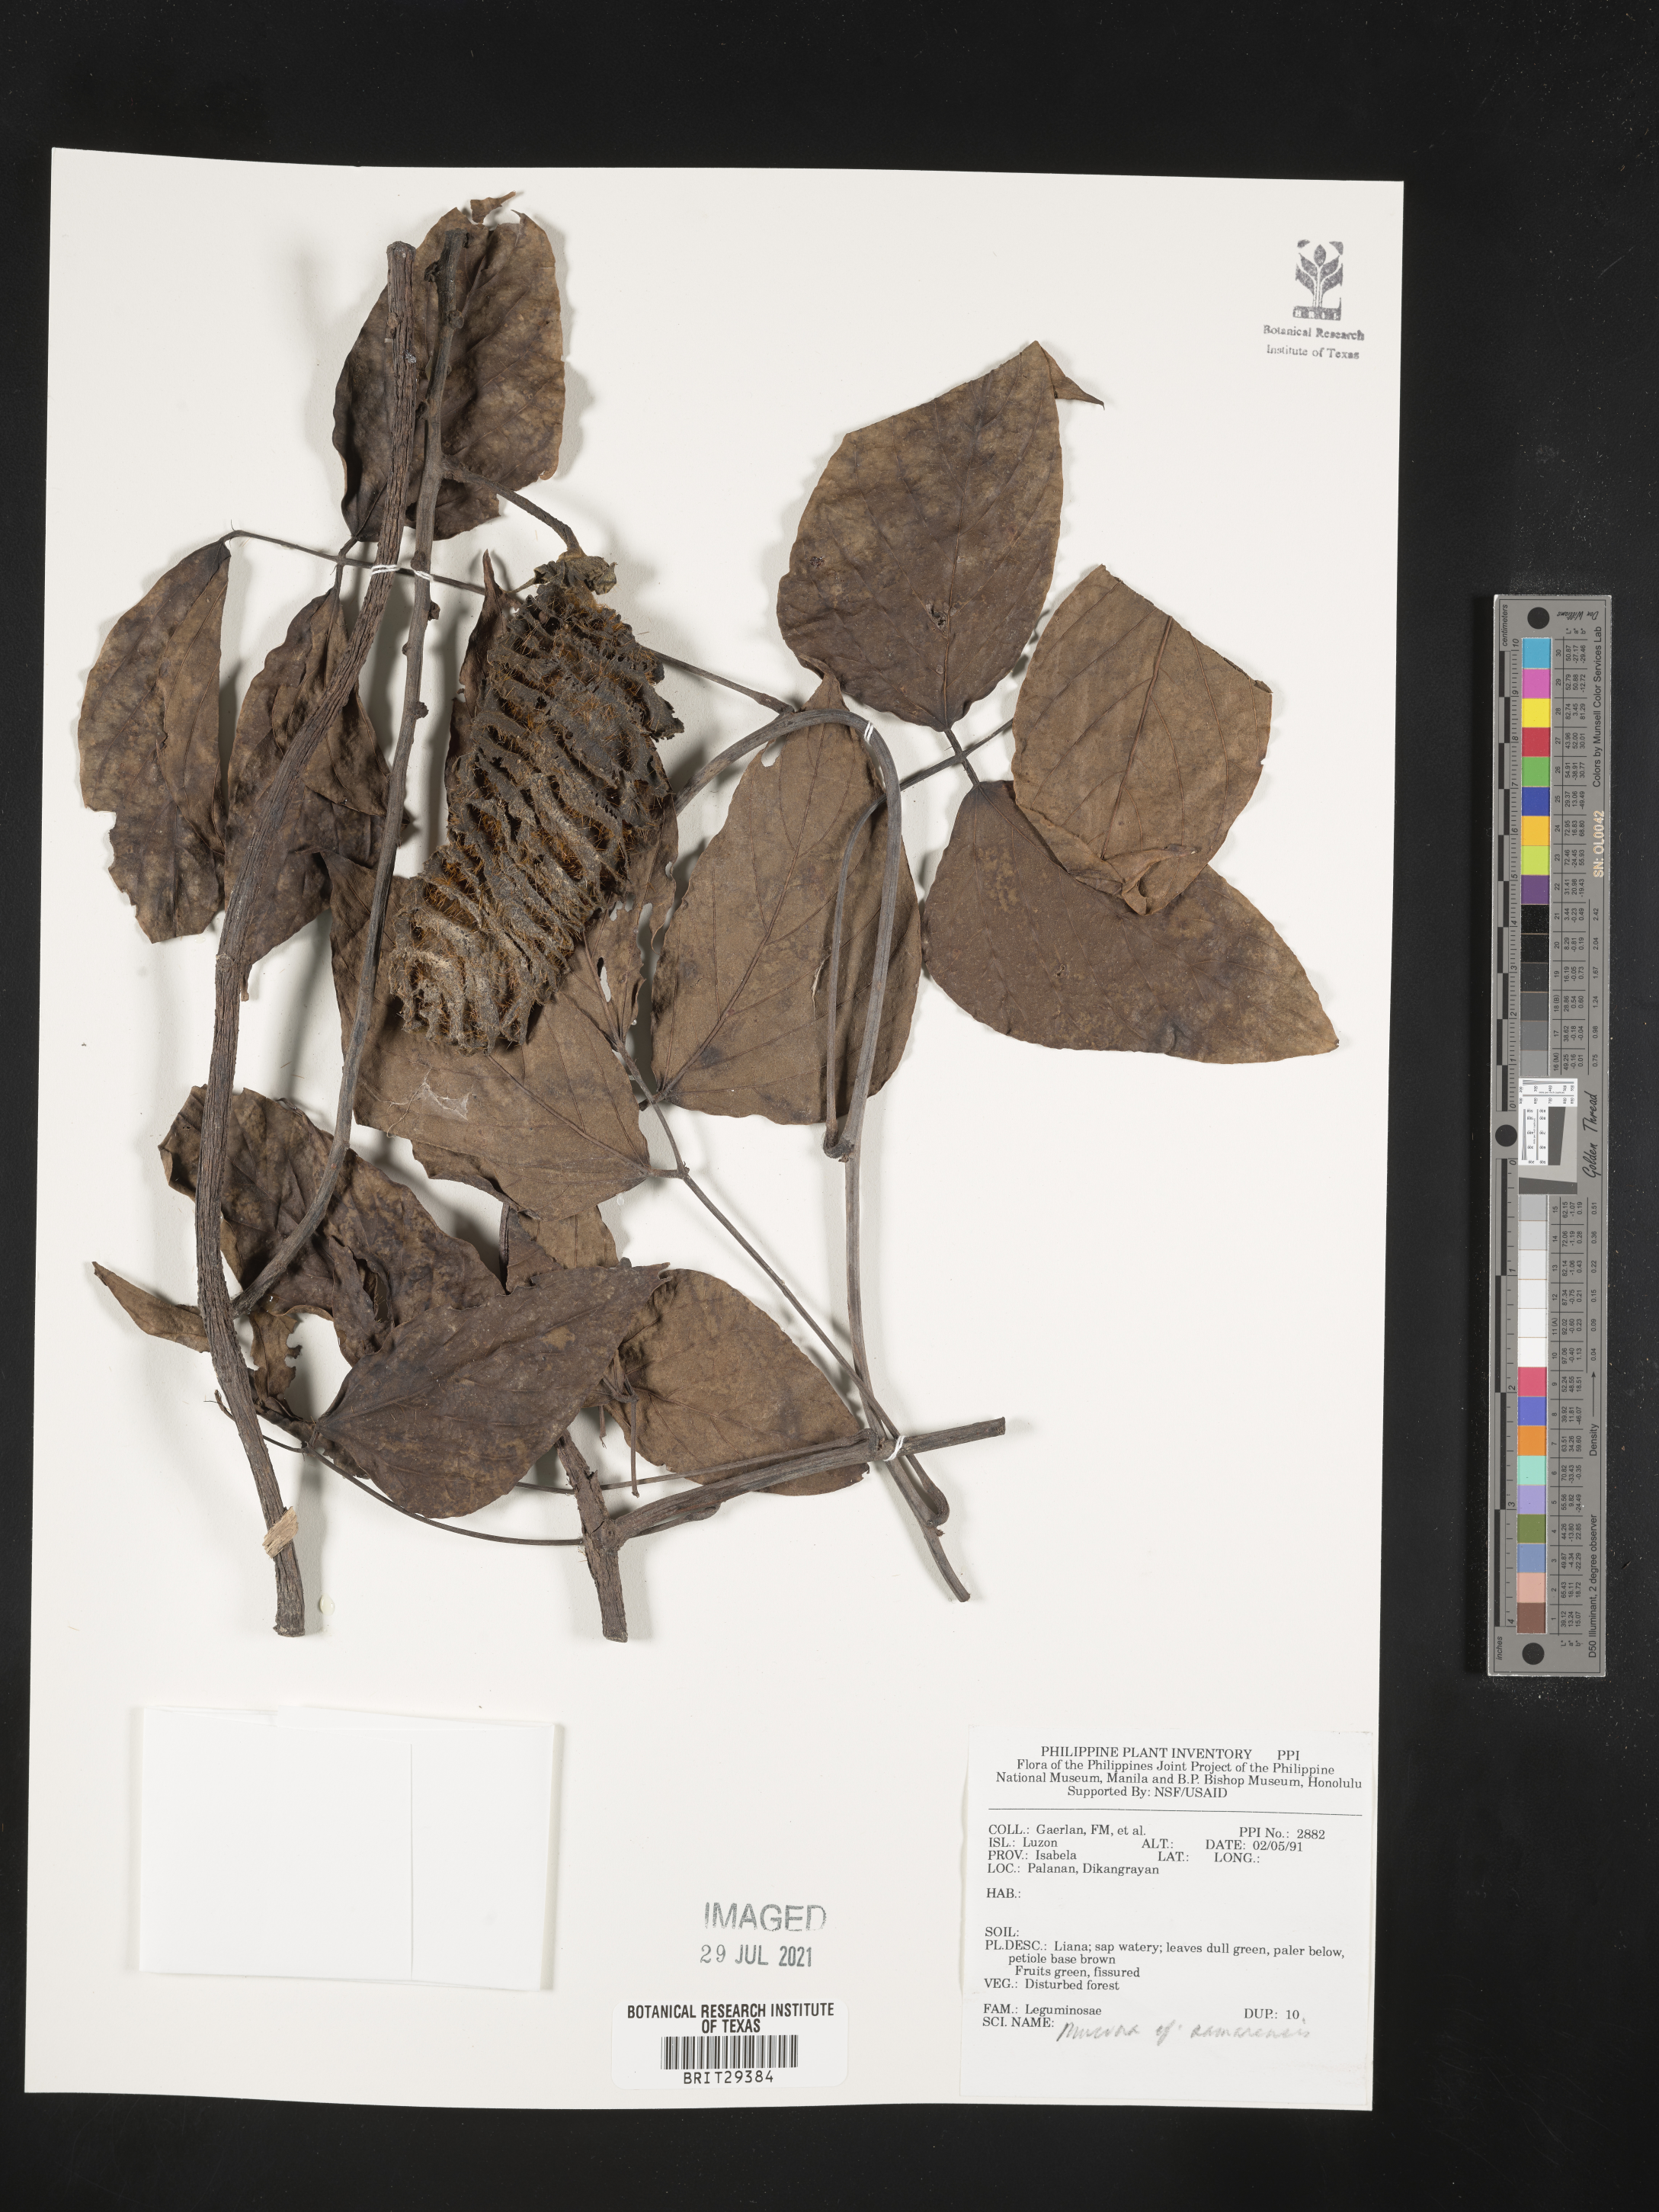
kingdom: Plantae
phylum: Tracheophyta
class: Magnoliopsida
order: Fabales
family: Fabaceae
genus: Mucuna
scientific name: Mucuna samarensis
